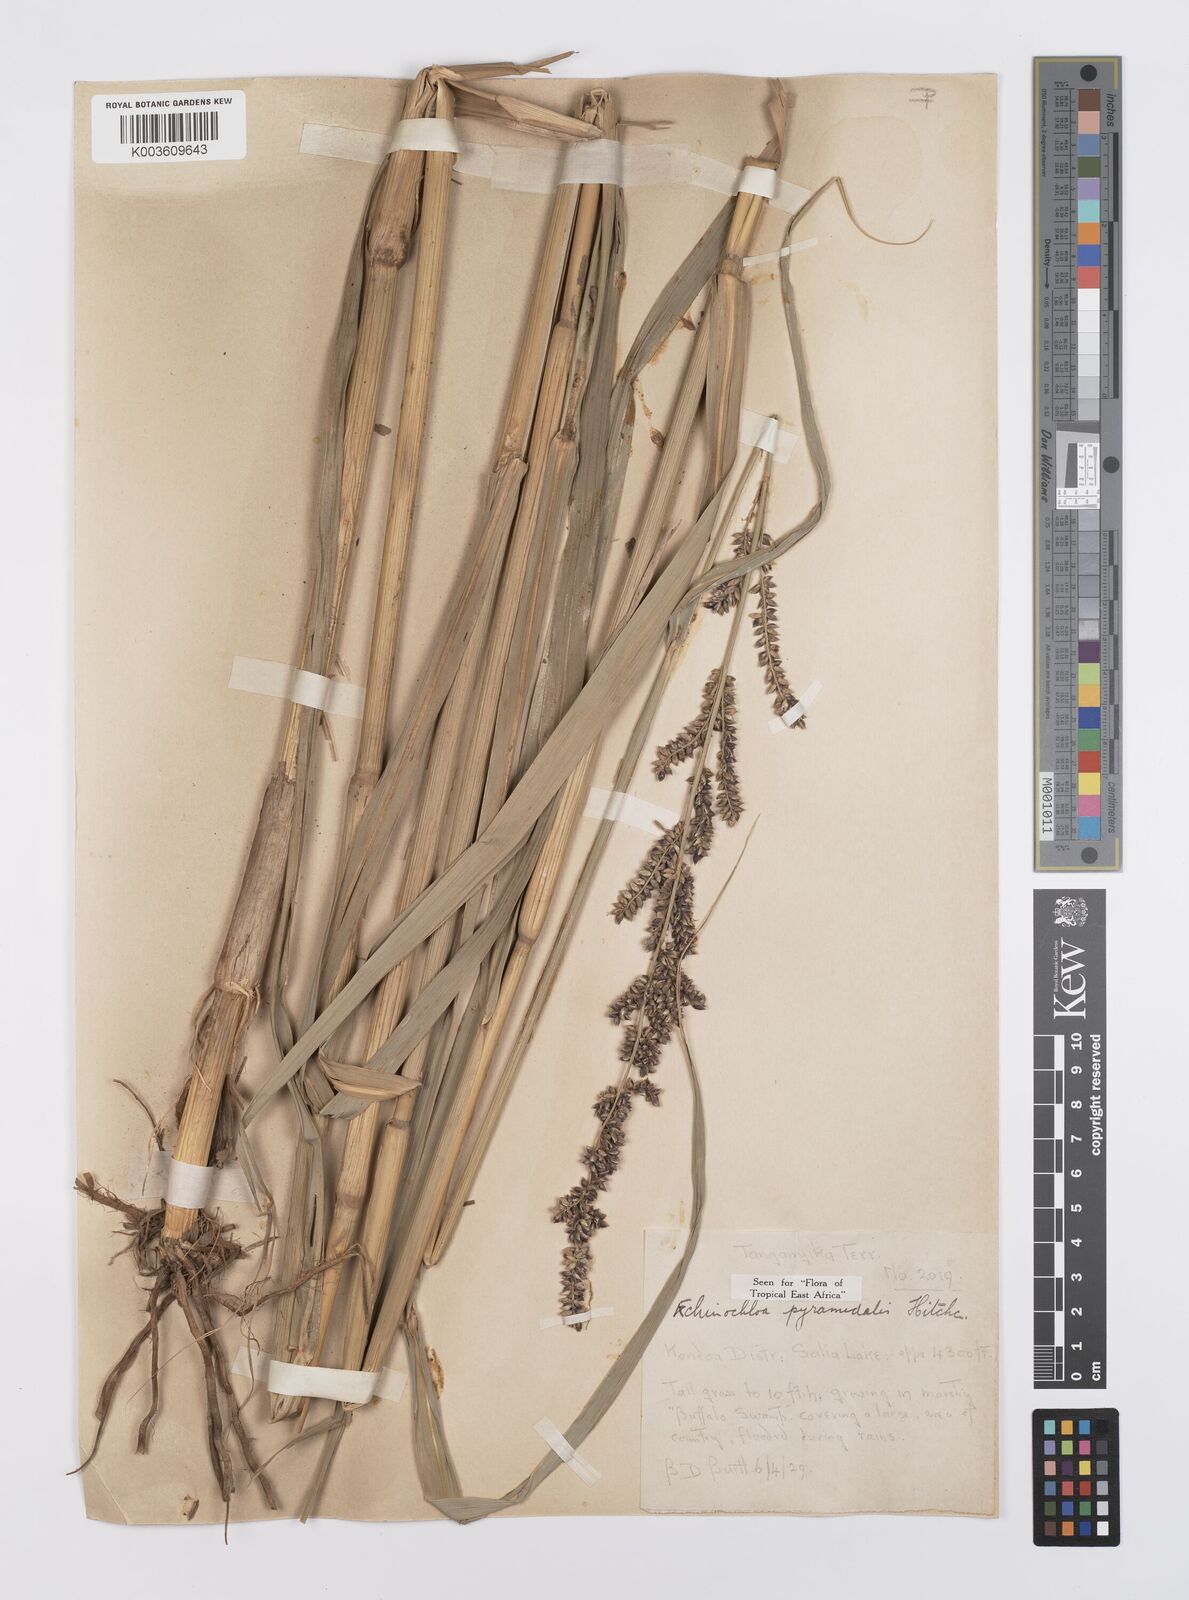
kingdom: Plantae
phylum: Tracheophyta
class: Liliopsida
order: Poales
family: Poaceae
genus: Echinochloa
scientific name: Echinochloa pyramidalis
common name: Antelope grass
